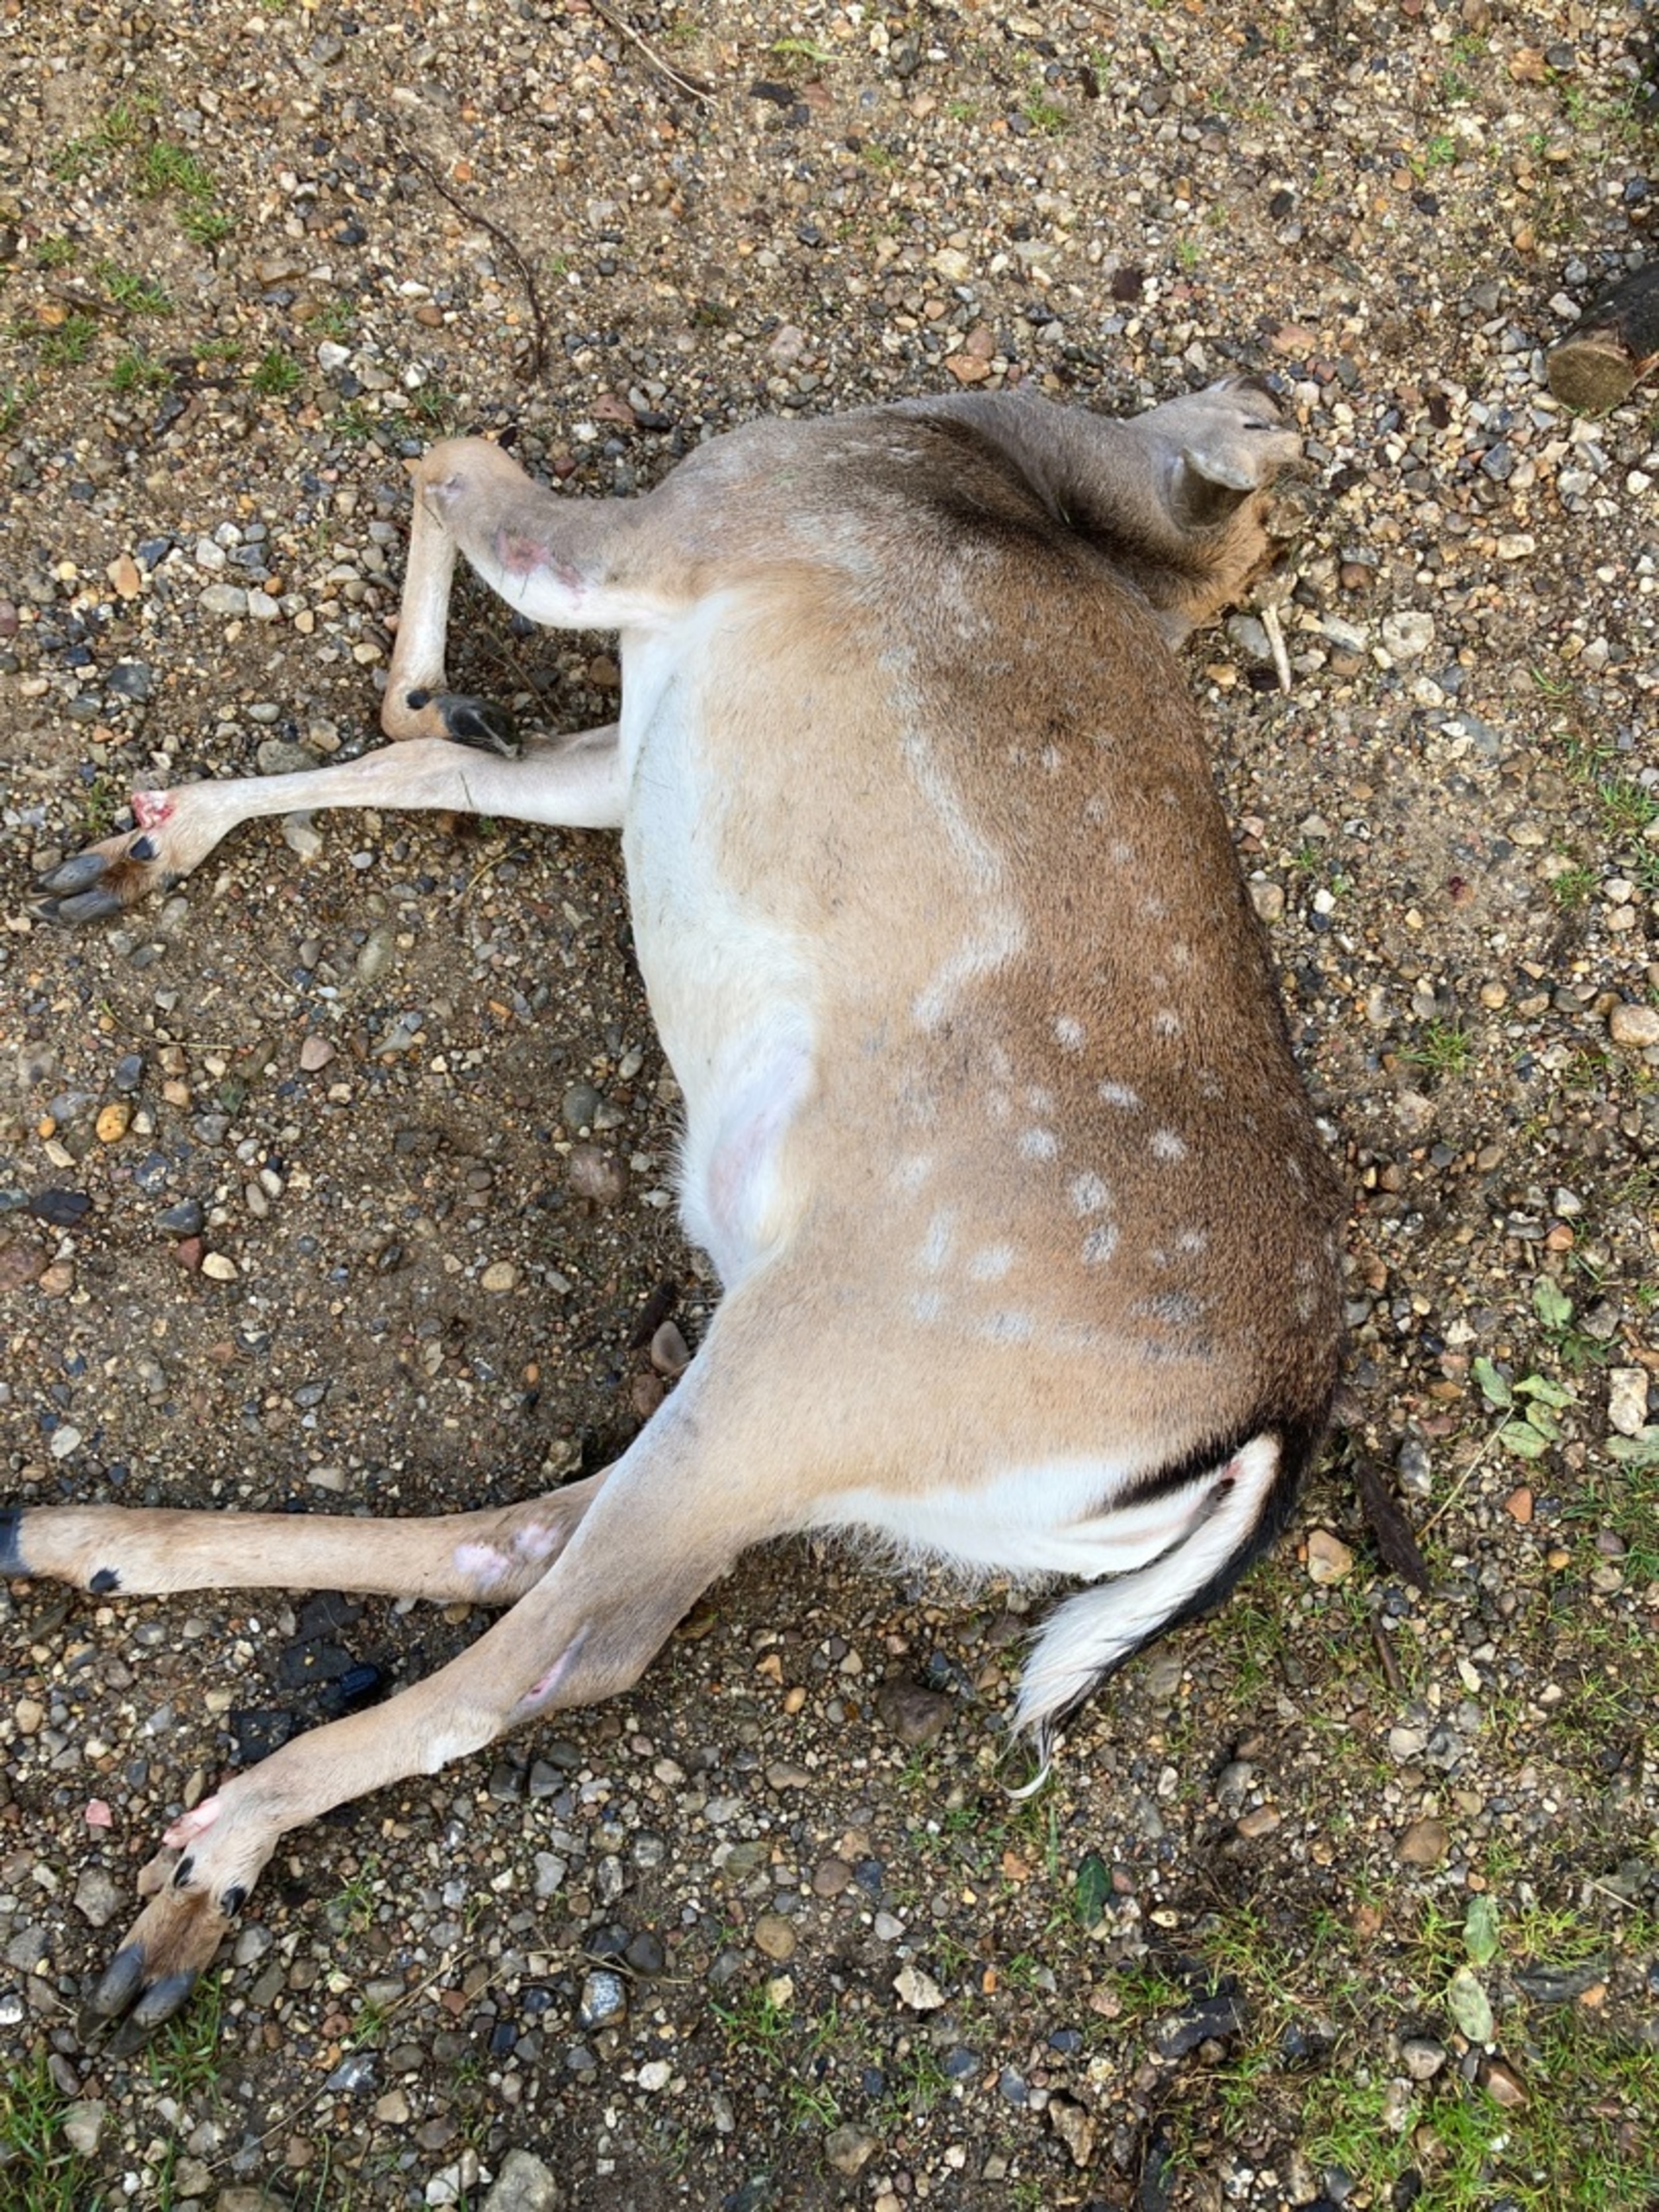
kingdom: Animalia
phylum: Chordata
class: Mammalia
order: Artiodactyla
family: Cervidae
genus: Dama
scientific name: Dama dama
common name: Dådyr
